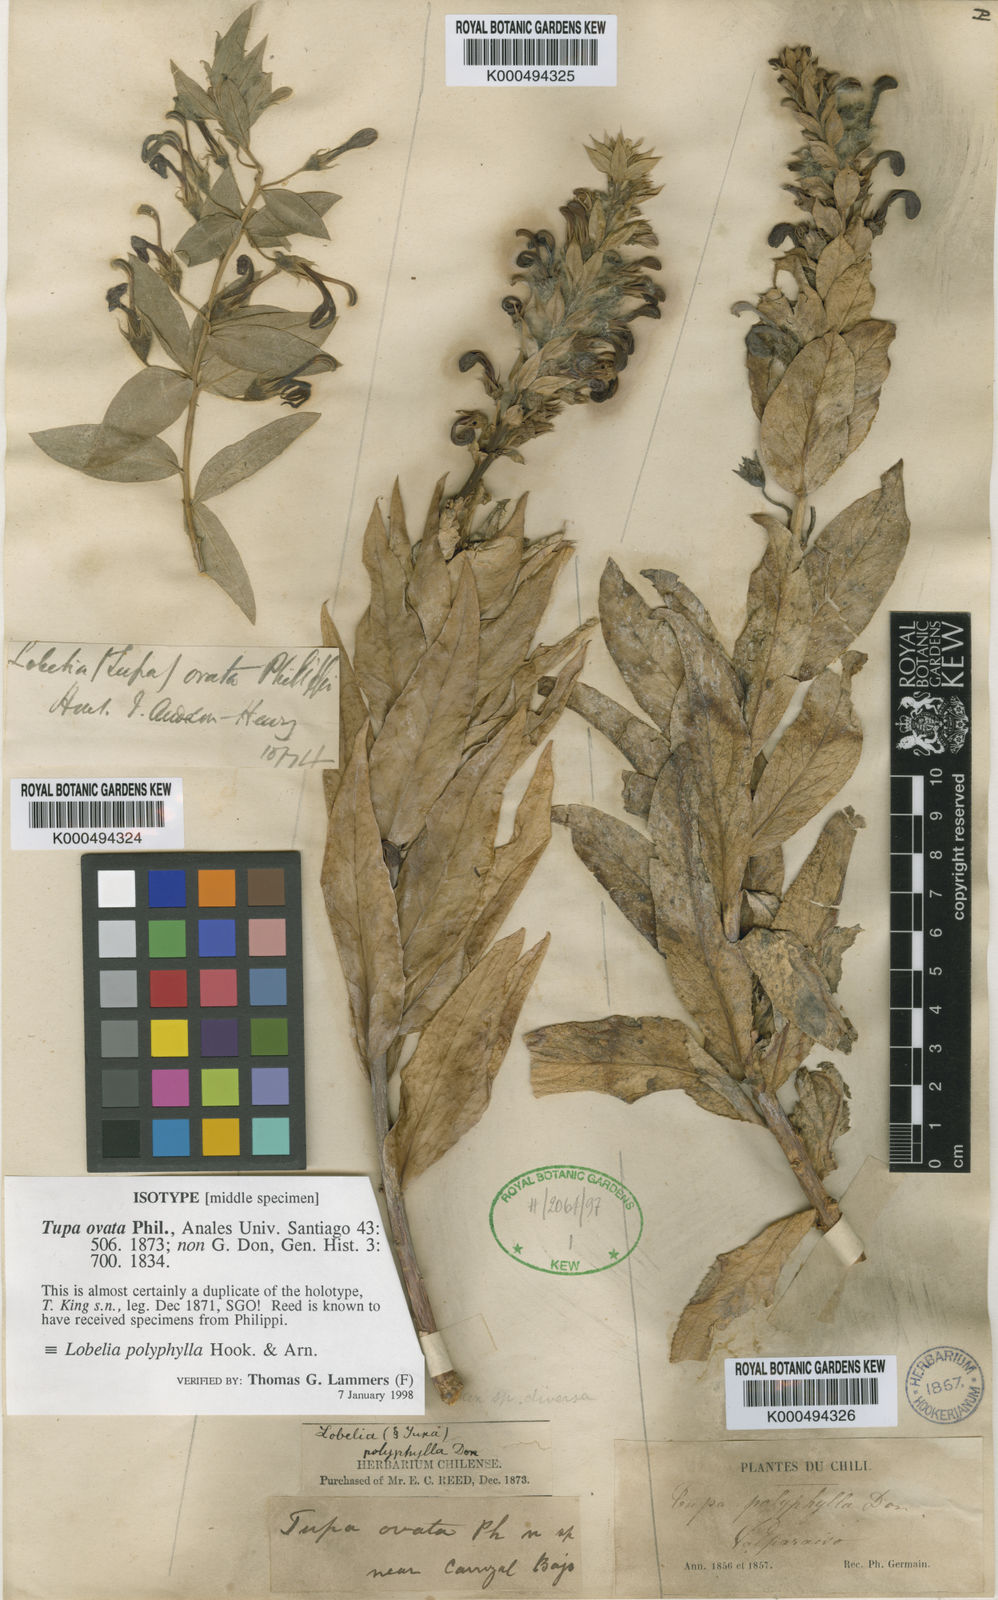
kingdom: Plantae
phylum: Tracheophyta
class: Magnoliopsida
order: Asterales
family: Campanulaceae
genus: Lobelia
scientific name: Lobelia polyphylla
